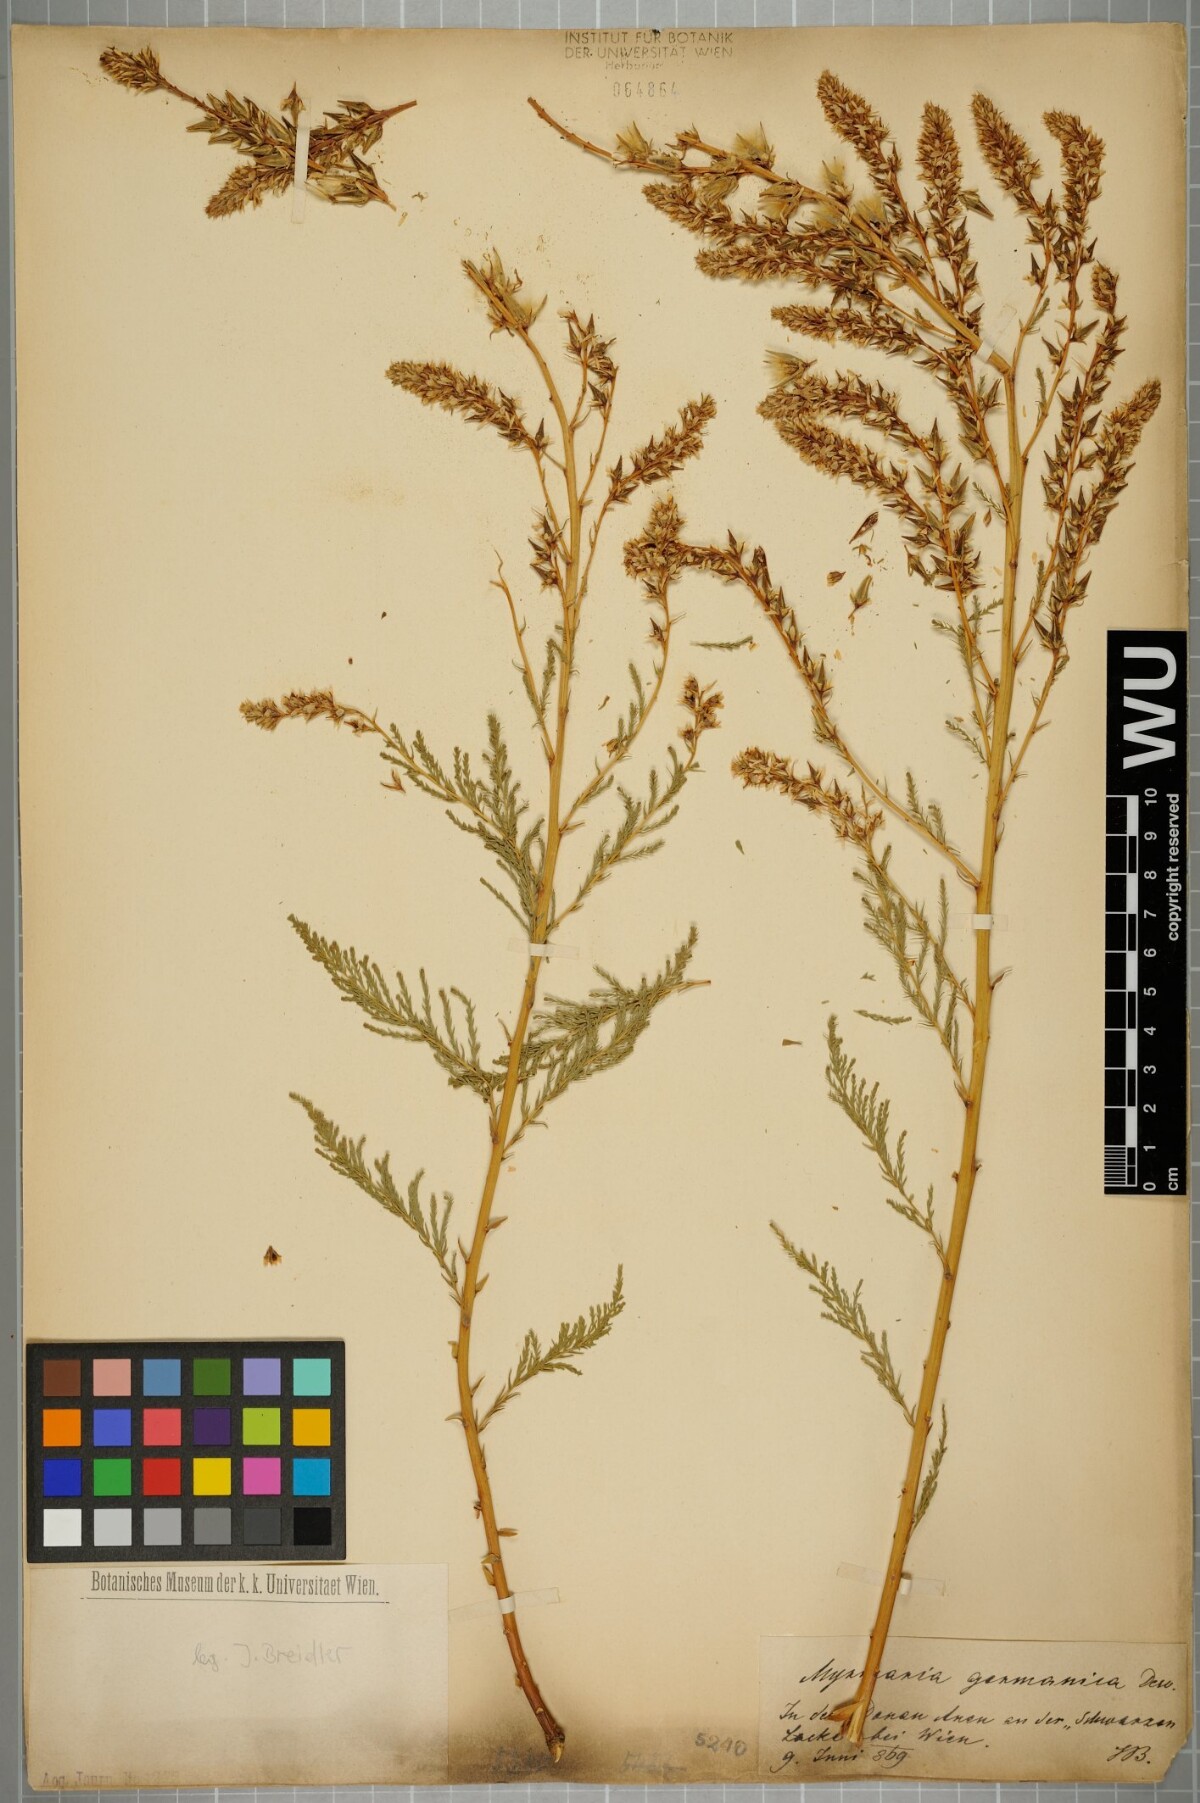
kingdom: Plantae
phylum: Tracheophyta
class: Magnoliopsida
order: Caryophyllales
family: Tamaricaceae
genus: Myricaria
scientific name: Myricaria germanica
